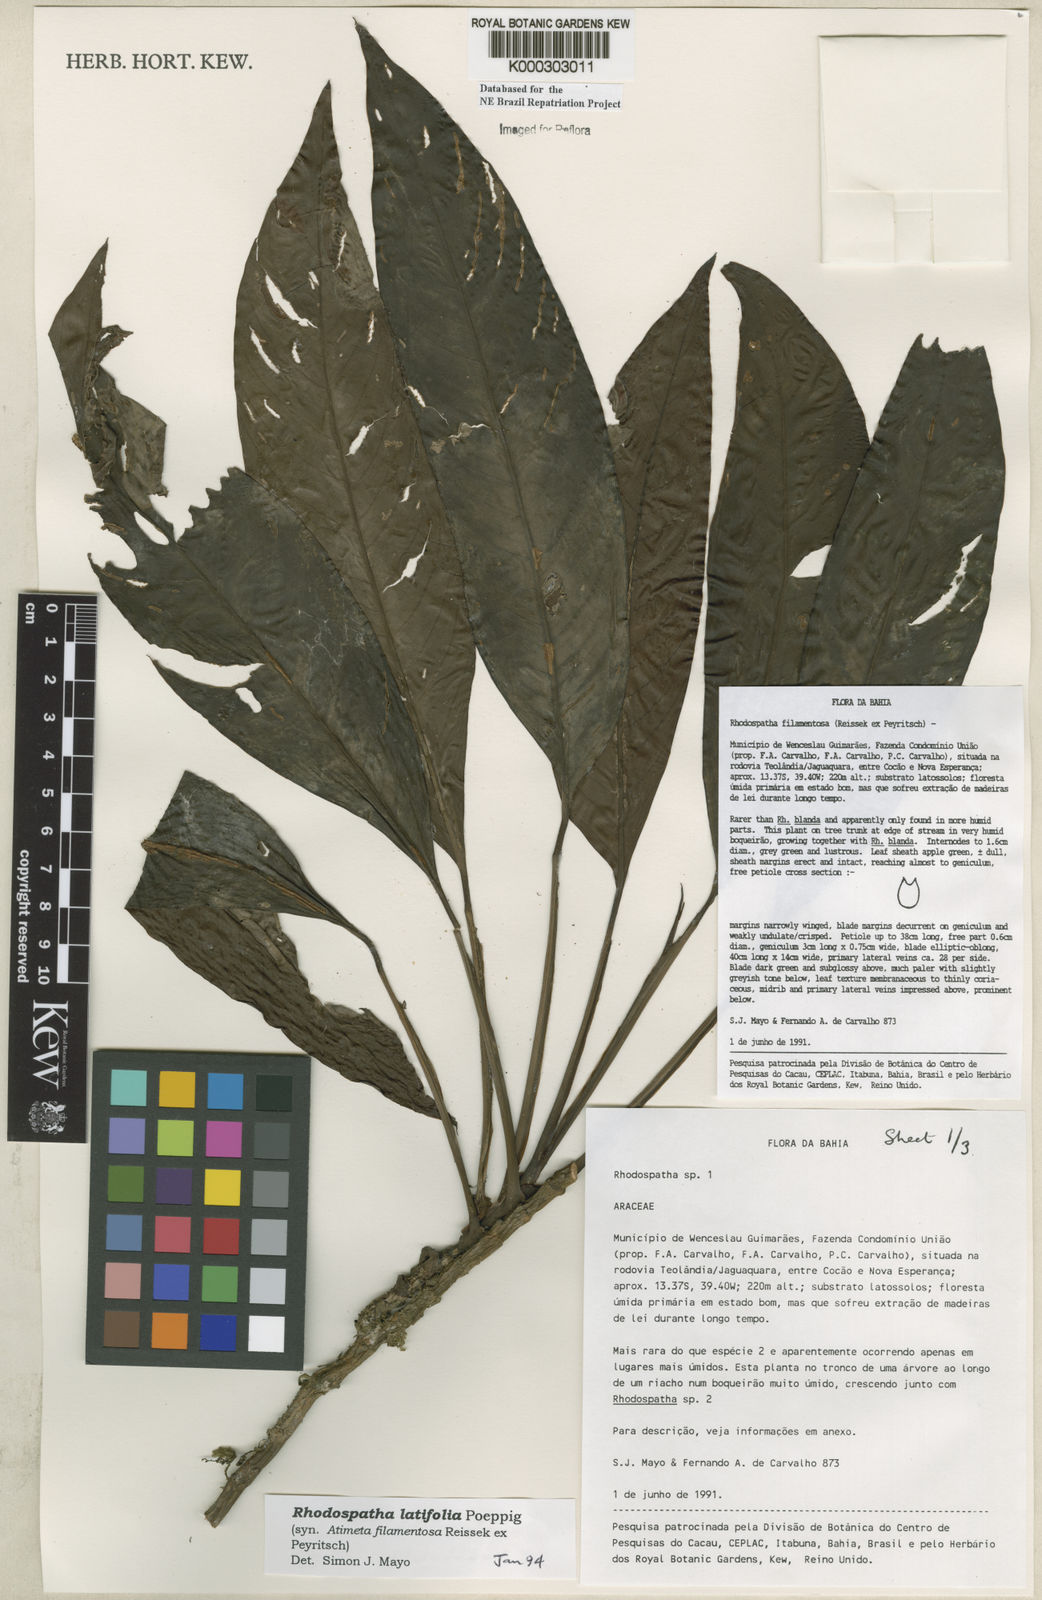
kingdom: Plantae
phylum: Tracheophyta
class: Liliopsida
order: Alismatales
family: Araceae
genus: Rhodospatha
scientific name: Rhodospatha latifolia
